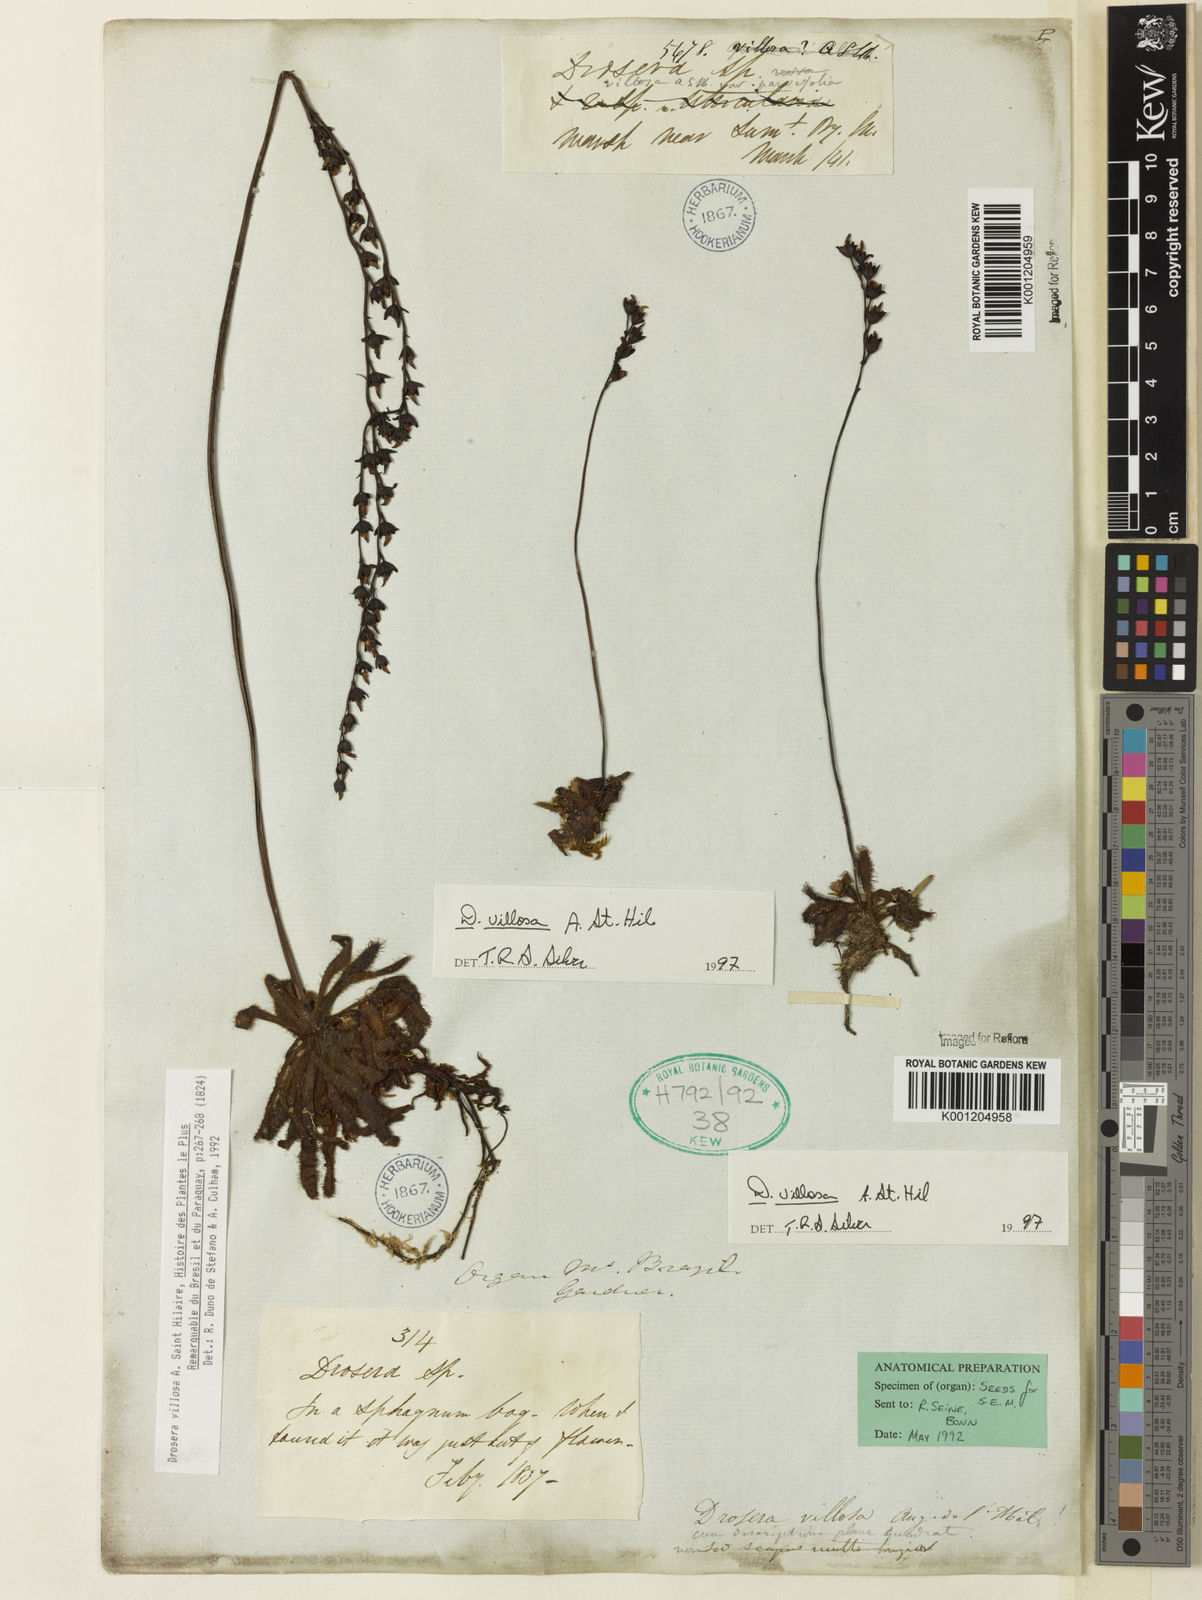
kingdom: Plantae
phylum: Tracheophyta
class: Magnoliopsida
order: Caryophyllales
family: Droseraceae
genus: Drosera
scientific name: Drosera villosa
